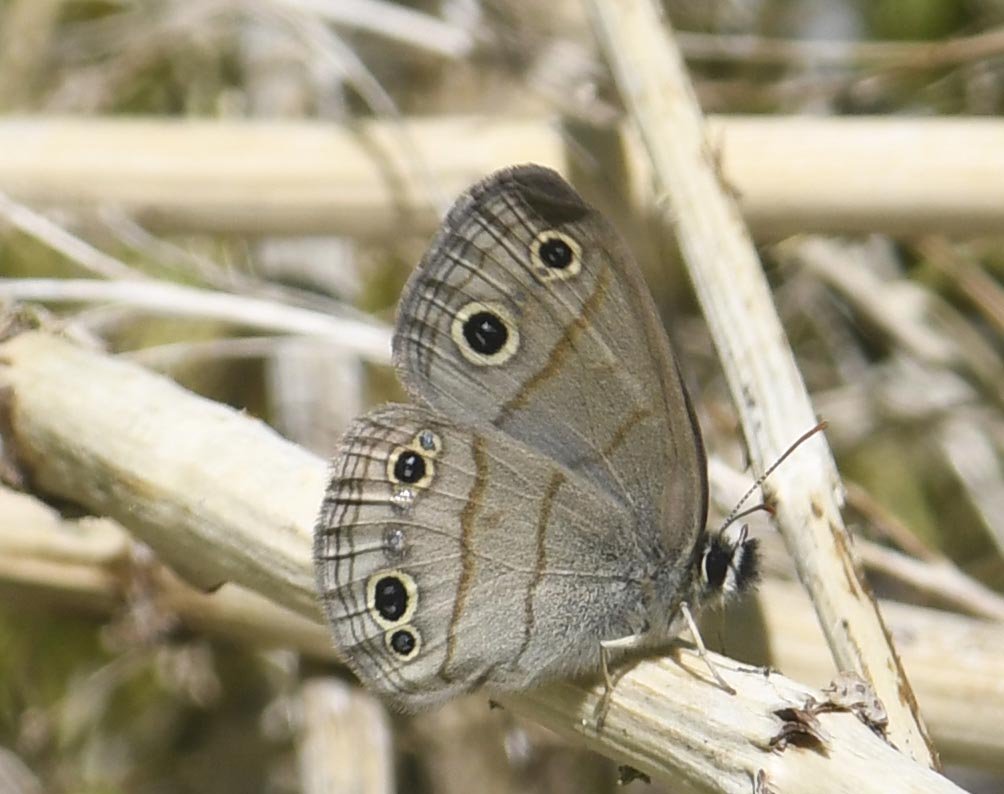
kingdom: Animalia
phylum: Arthropoda
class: Insecta
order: Lepidoptera
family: Nymphalidae
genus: Euptychia
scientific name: Euptychia cymela
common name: Little Wood Satyr
